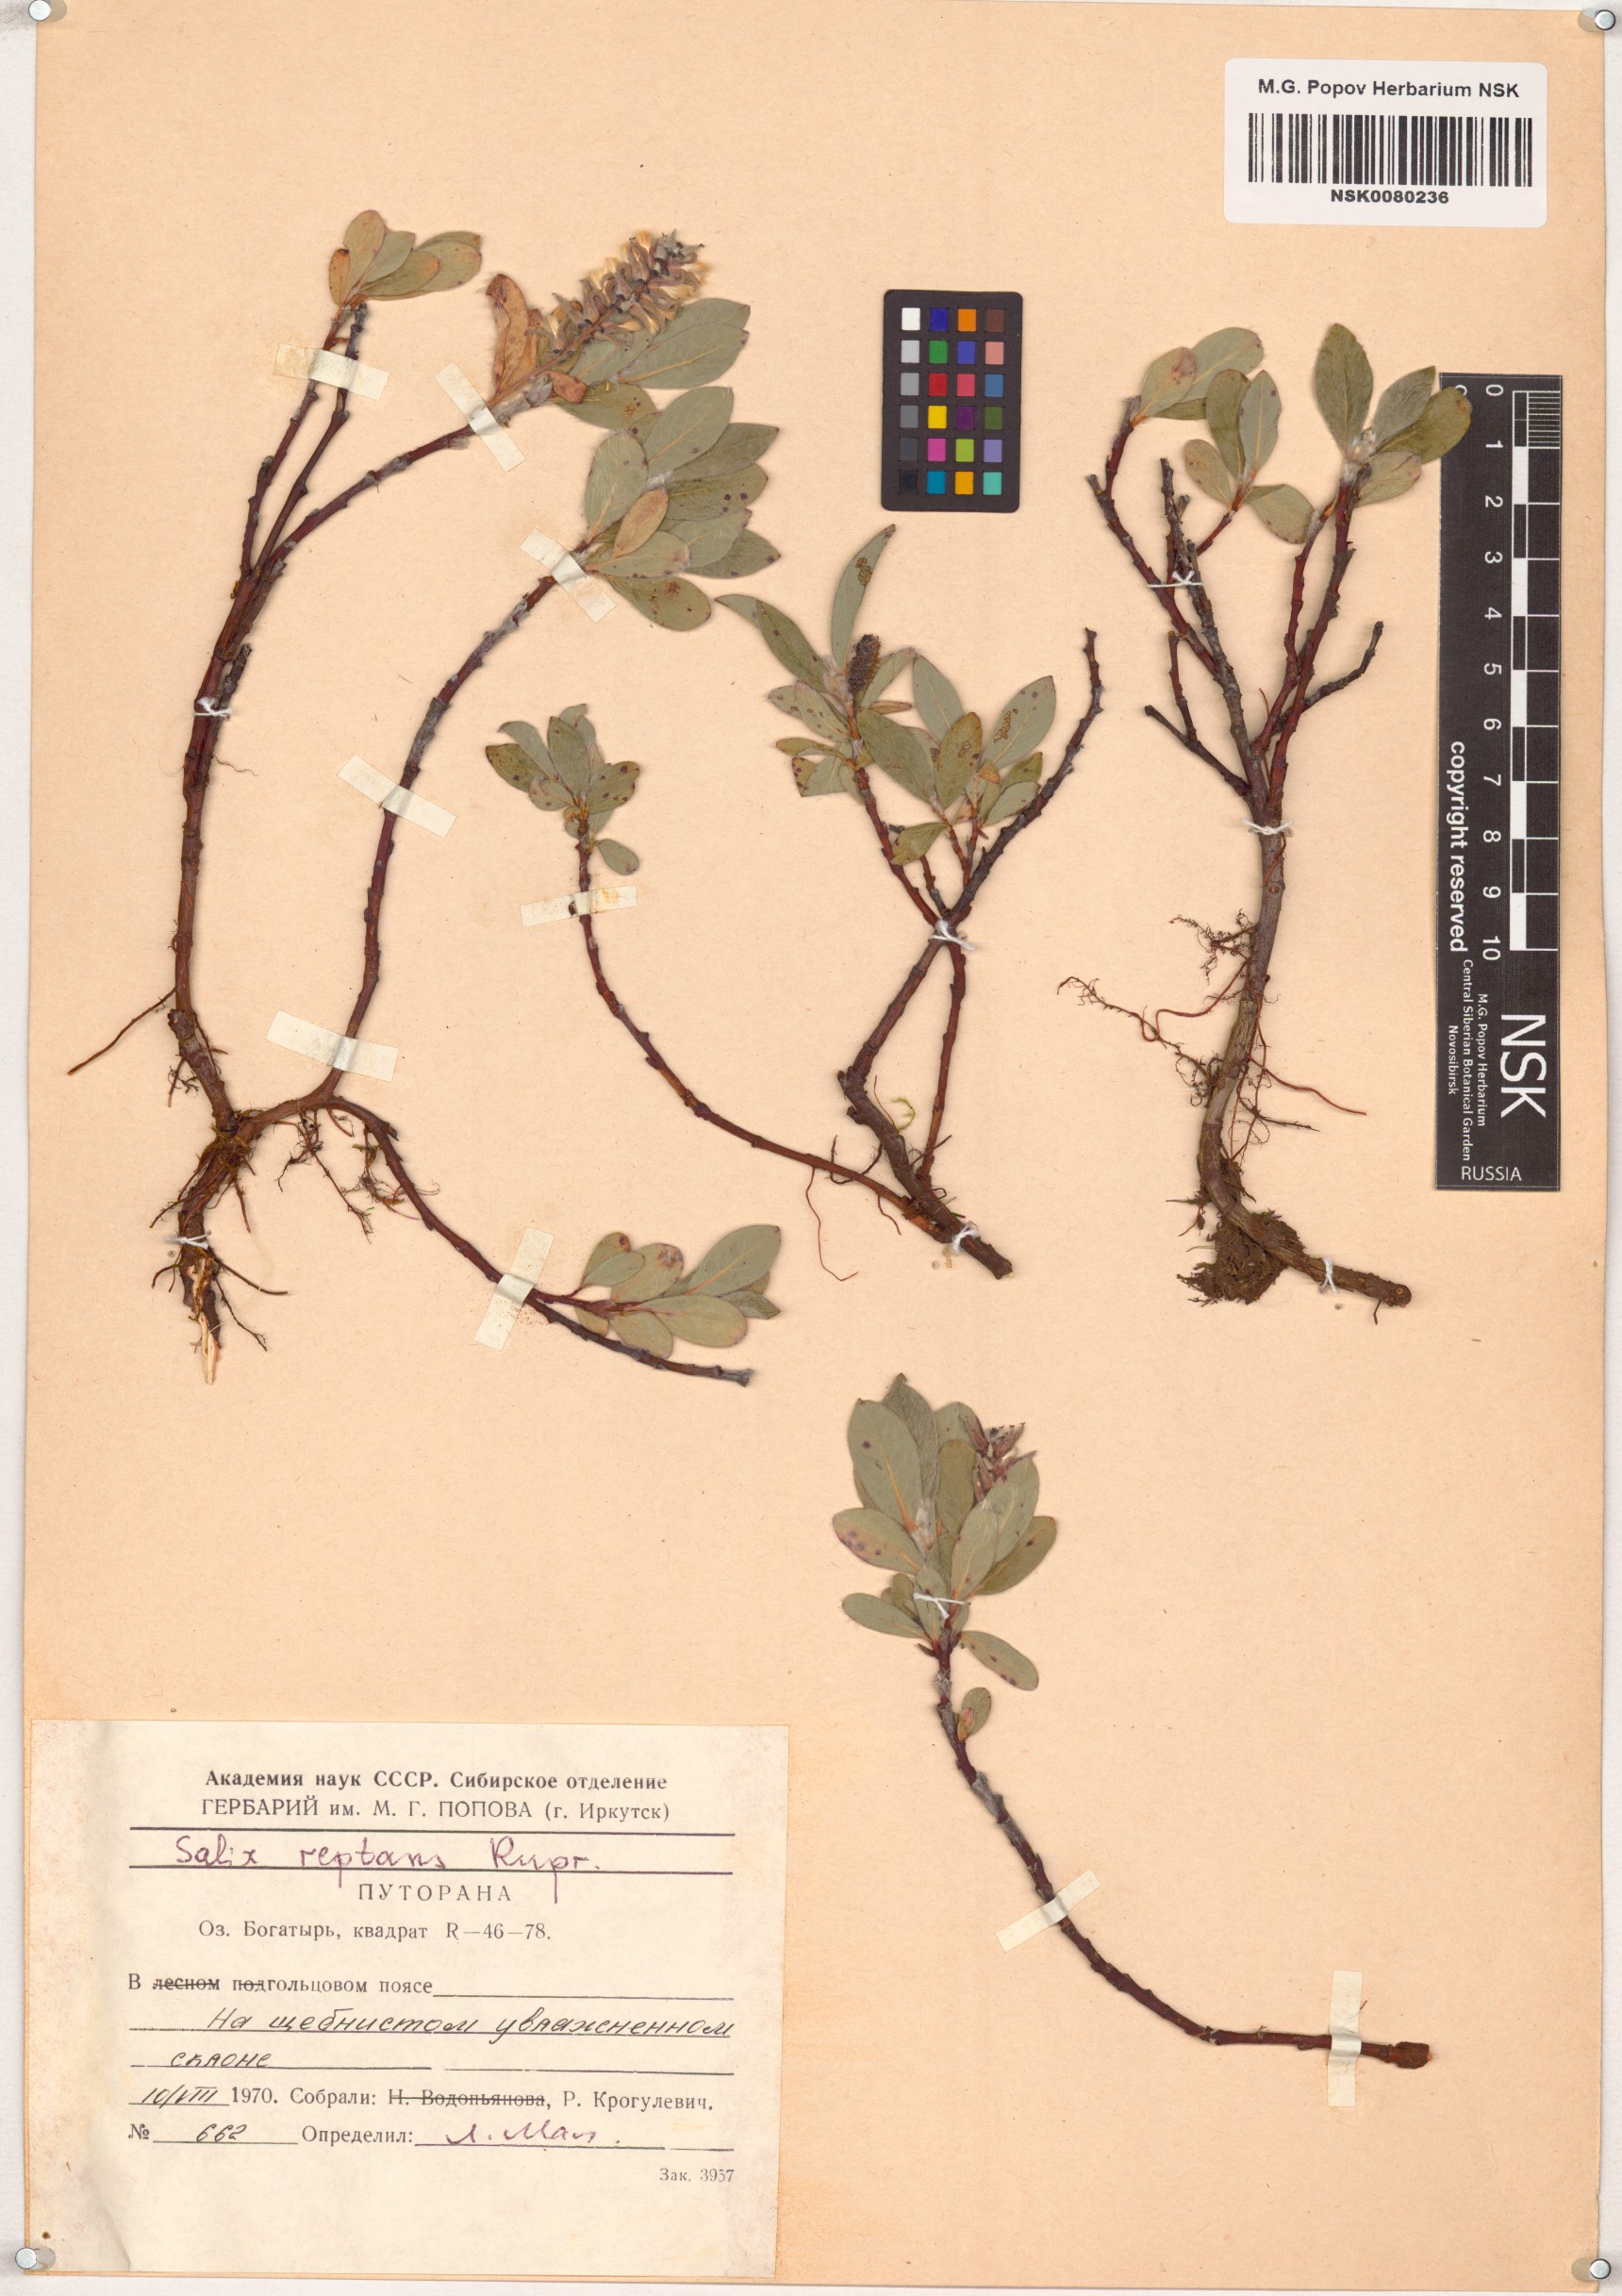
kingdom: Plantae
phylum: Tracheophyta
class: Magnoliopsida
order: Malpighiales
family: Salicaceae
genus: Salix
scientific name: Salix reptans
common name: Arctic creeping willow
